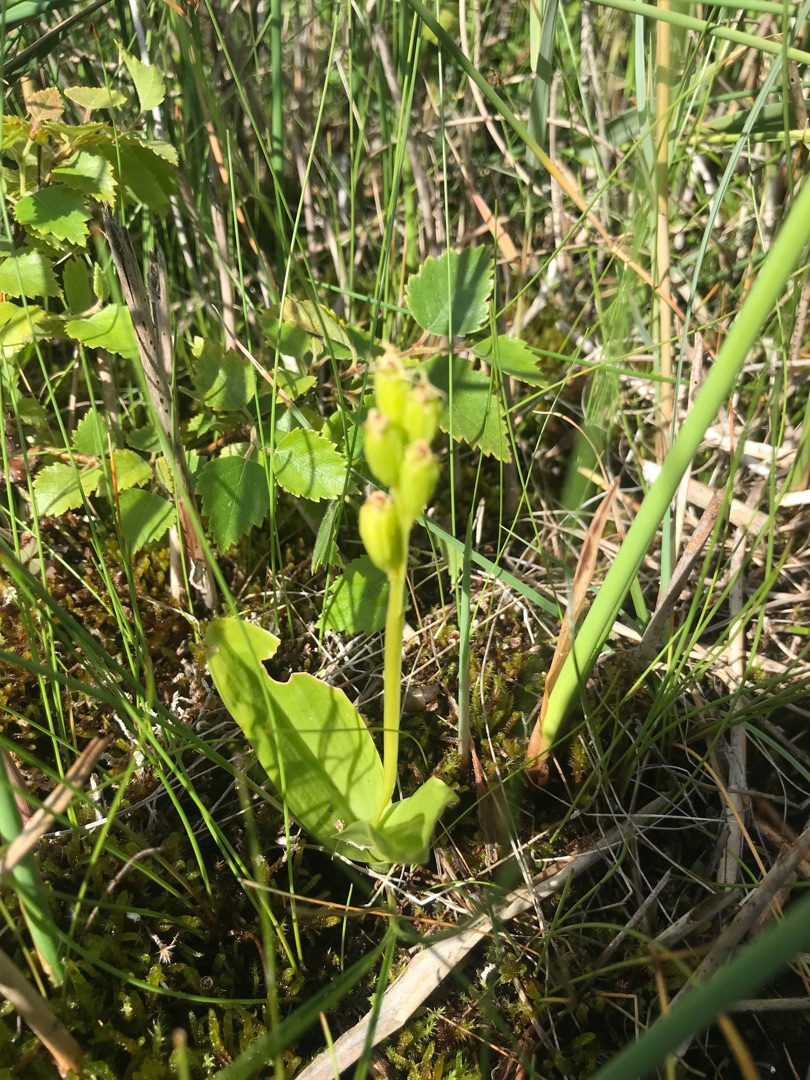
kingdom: Animalia
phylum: Arthropoda
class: Insecta
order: Coleoptera
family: Curculionidae
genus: Liparis
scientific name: Liparis loeselii
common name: Mygblomst
